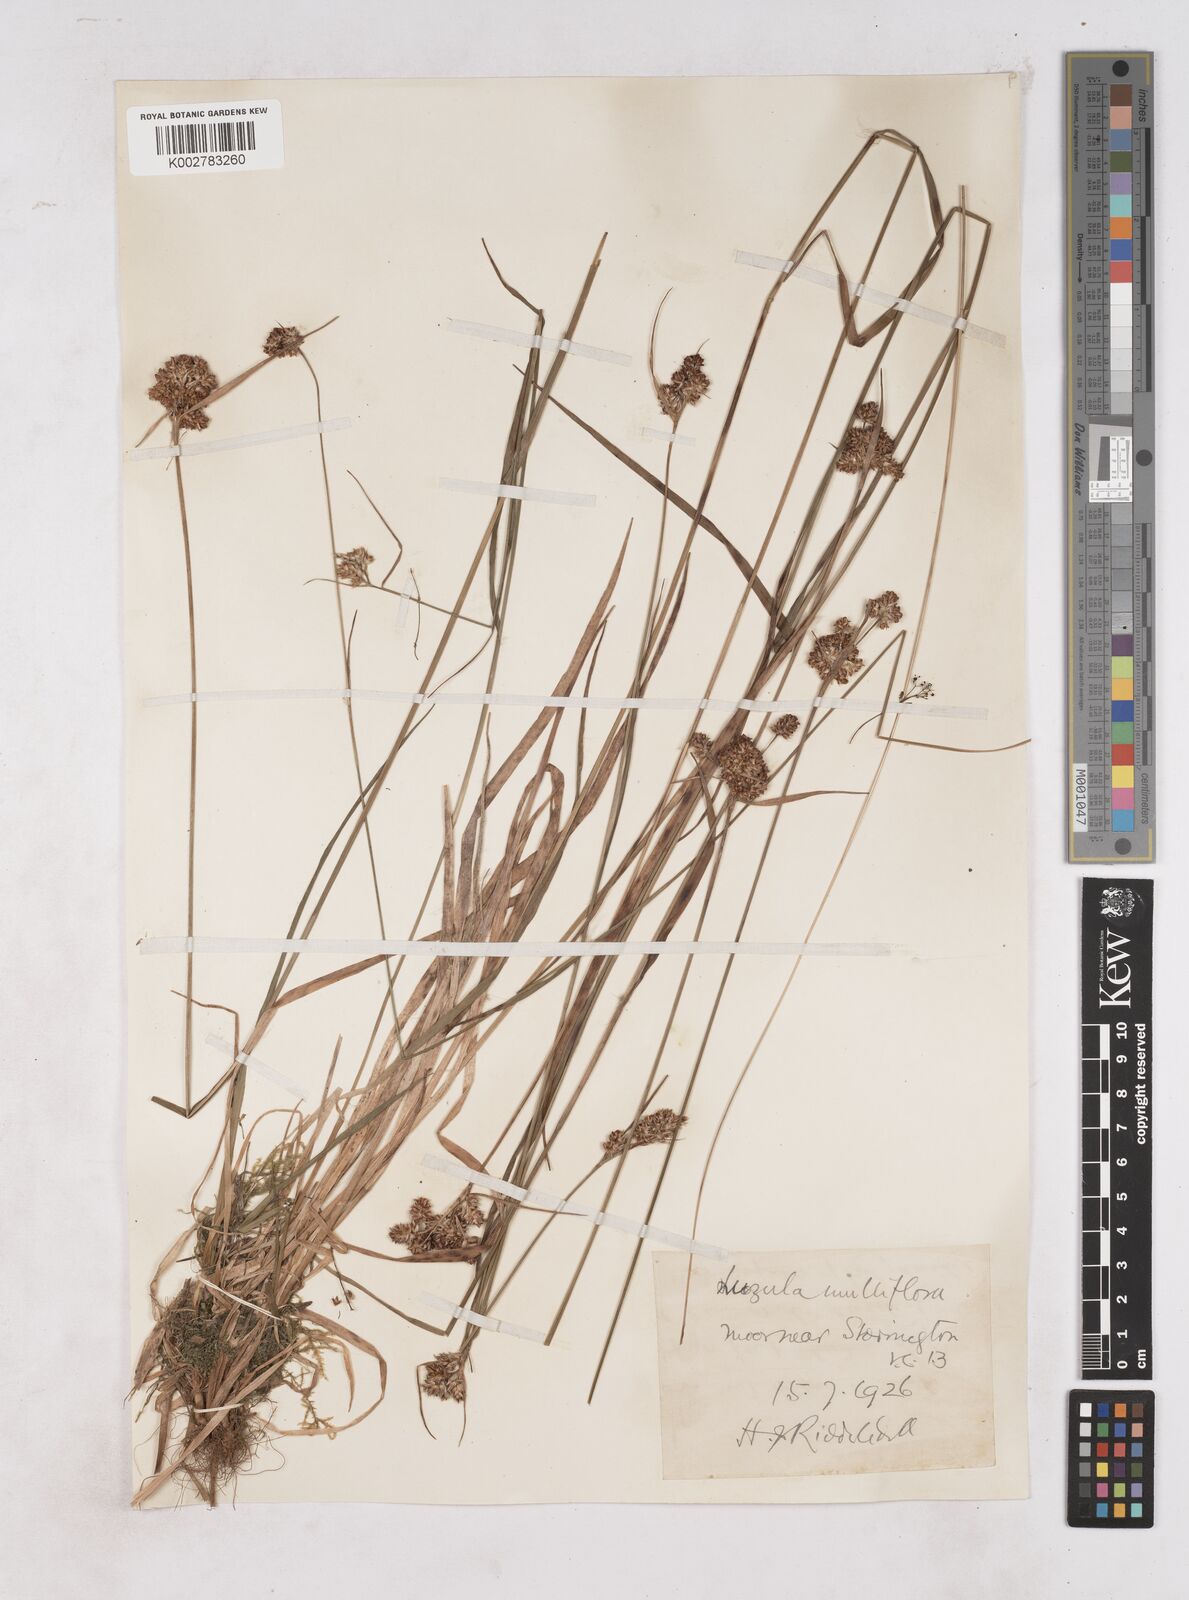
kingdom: Plantae
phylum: Tracheophyta
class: Liliopsida
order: Poales
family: Juncaceae
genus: Luzula
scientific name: Luzula multiflora
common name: Heath wood-rush
